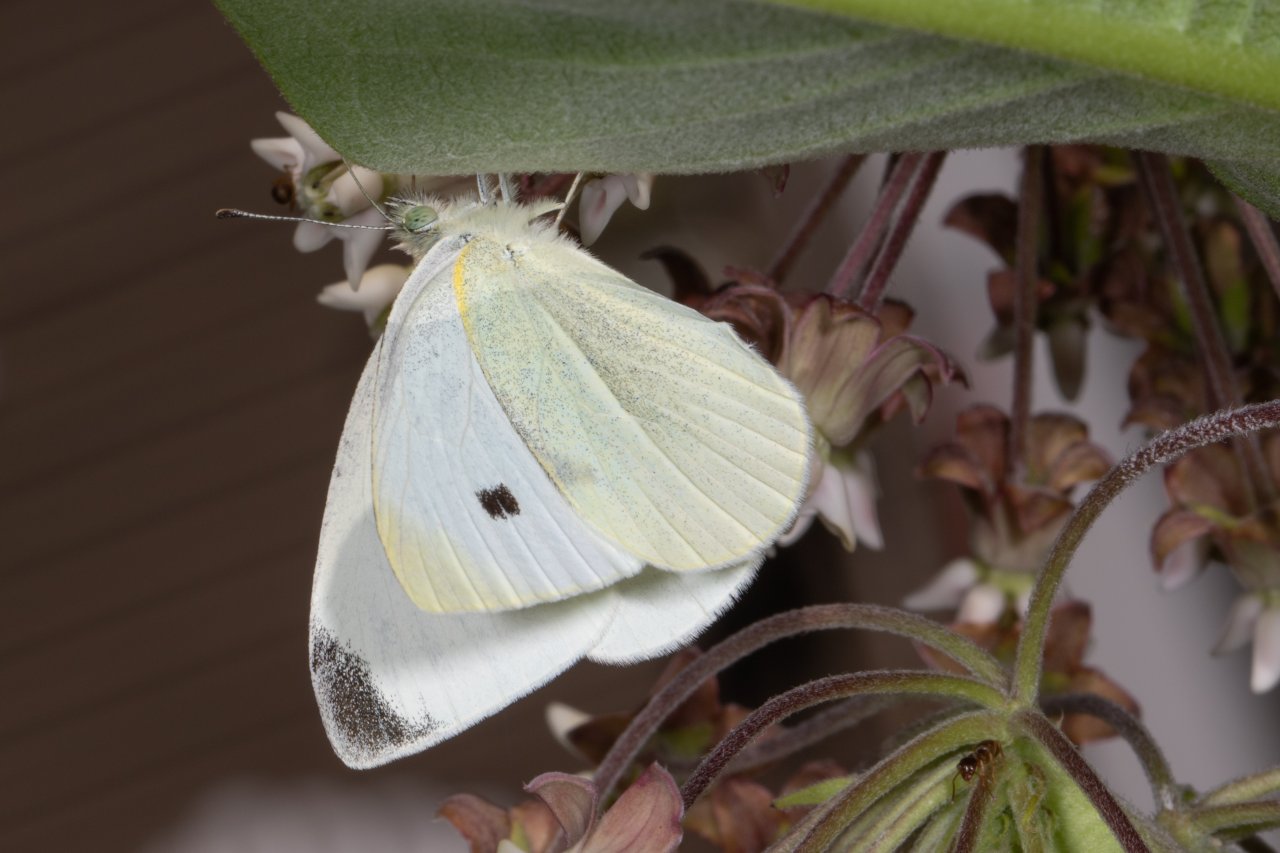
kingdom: Animalia
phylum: Arthropoda
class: Insecta
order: Lepidoptera
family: Pieridae
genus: Pieris
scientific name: Pieris rapae
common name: Cabbage White
